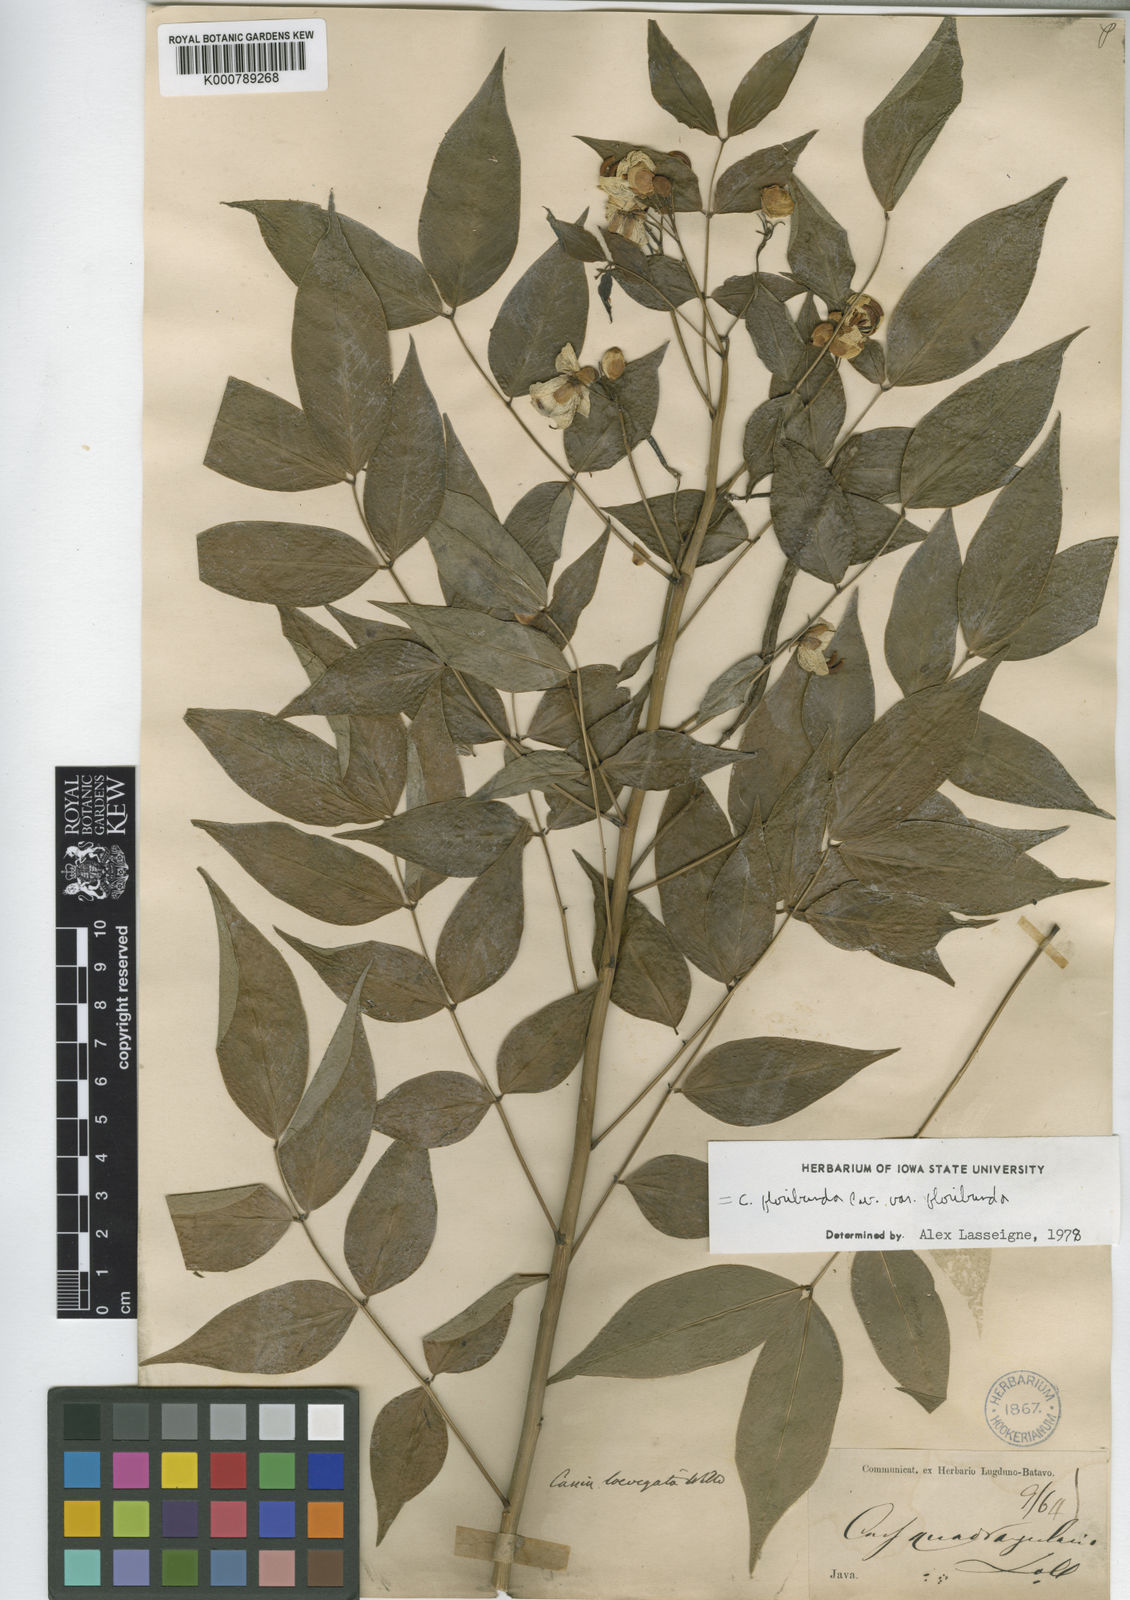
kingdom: Plantae
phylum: Tracheophyta
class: Magnoliopsida
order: Fabales
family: Fabaceae
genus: Senna
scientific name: Senna floribunda
